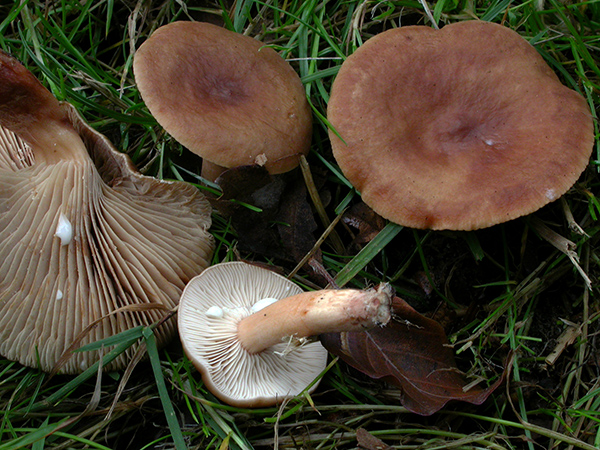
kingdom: Fungi
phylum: Basidiomycota
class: Agaricomycetes
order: Russulales
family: Russulaceae
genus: Lactarius
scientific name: Lactarius subdulcis
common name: sødlig mælkehat
